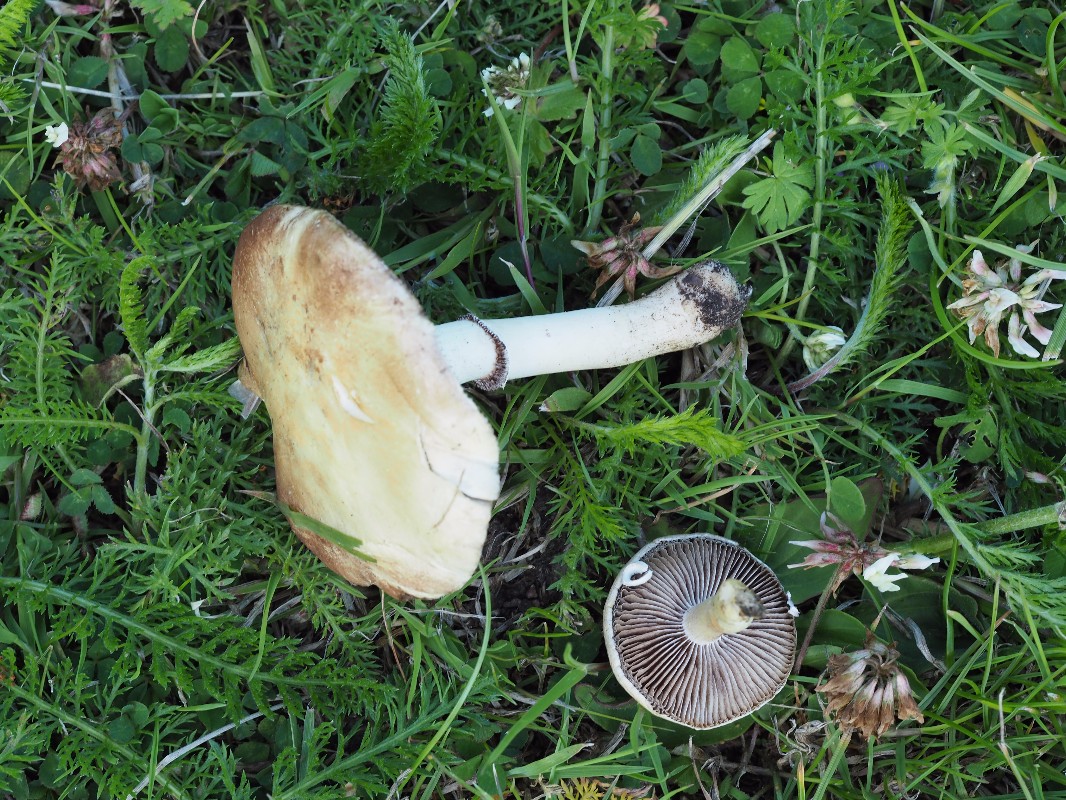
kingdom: Fungi
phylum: Basidiomycota
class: Agaricomycetes
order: Agaricales
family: Hymenogastraceae
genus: Psilocybe
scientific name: Psilocybe coronilla
